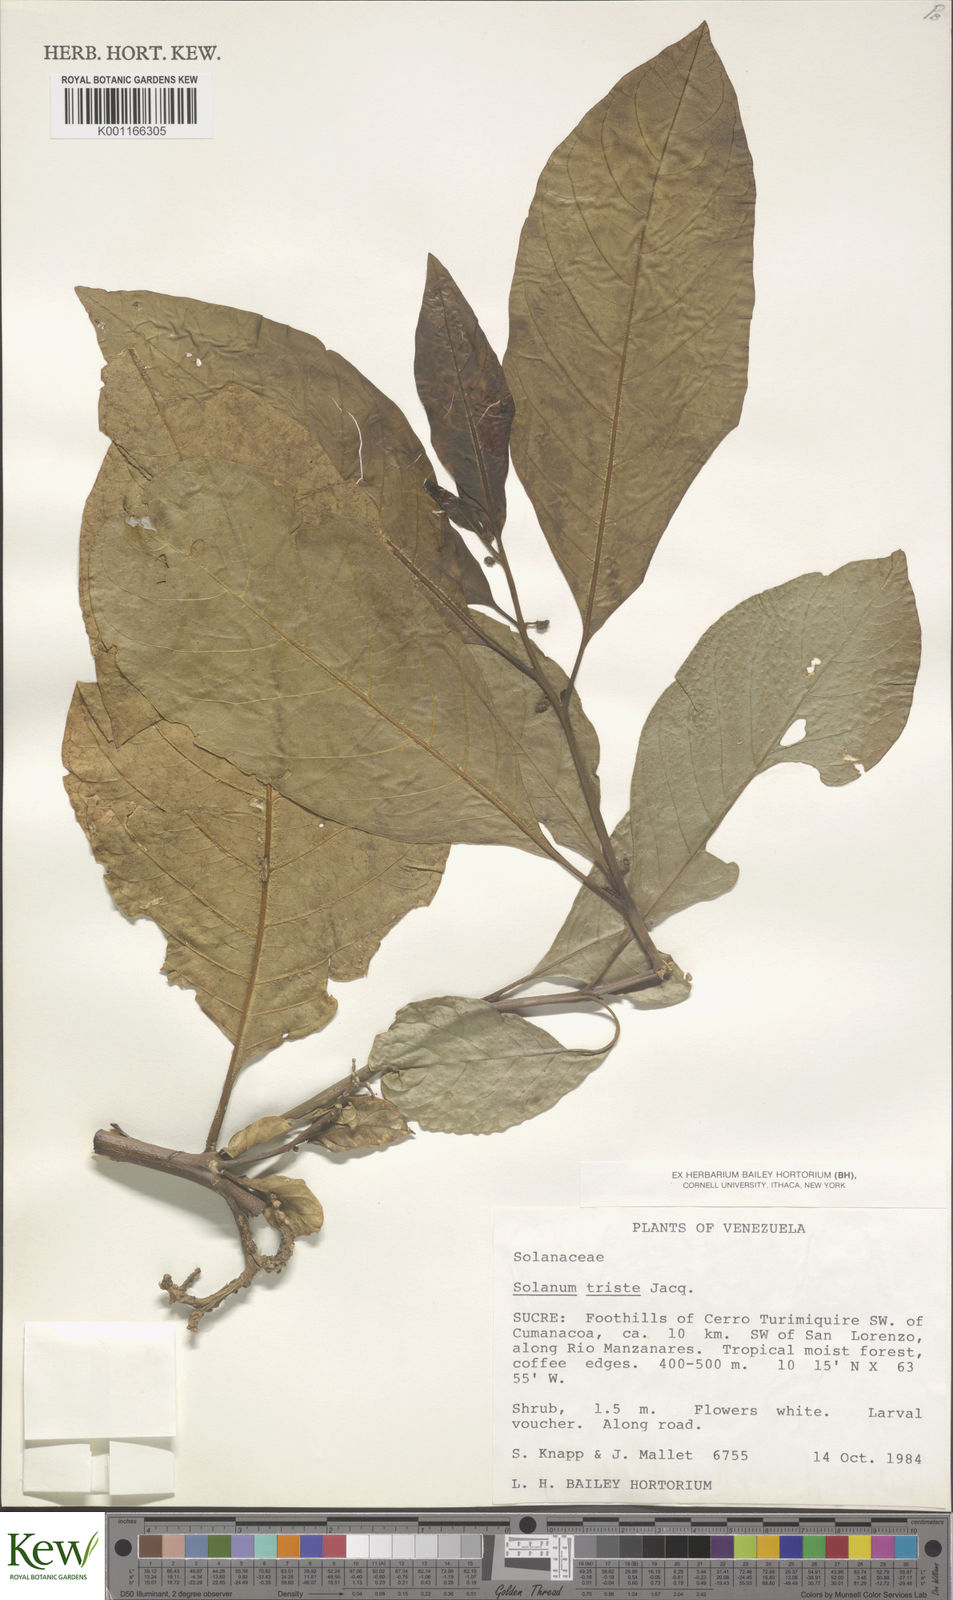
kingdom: Plantae
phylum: Tracheophyta
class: Magnoliopsida
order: Solanales
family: Solanaceae
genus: Solanum
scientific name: Solanum triste
